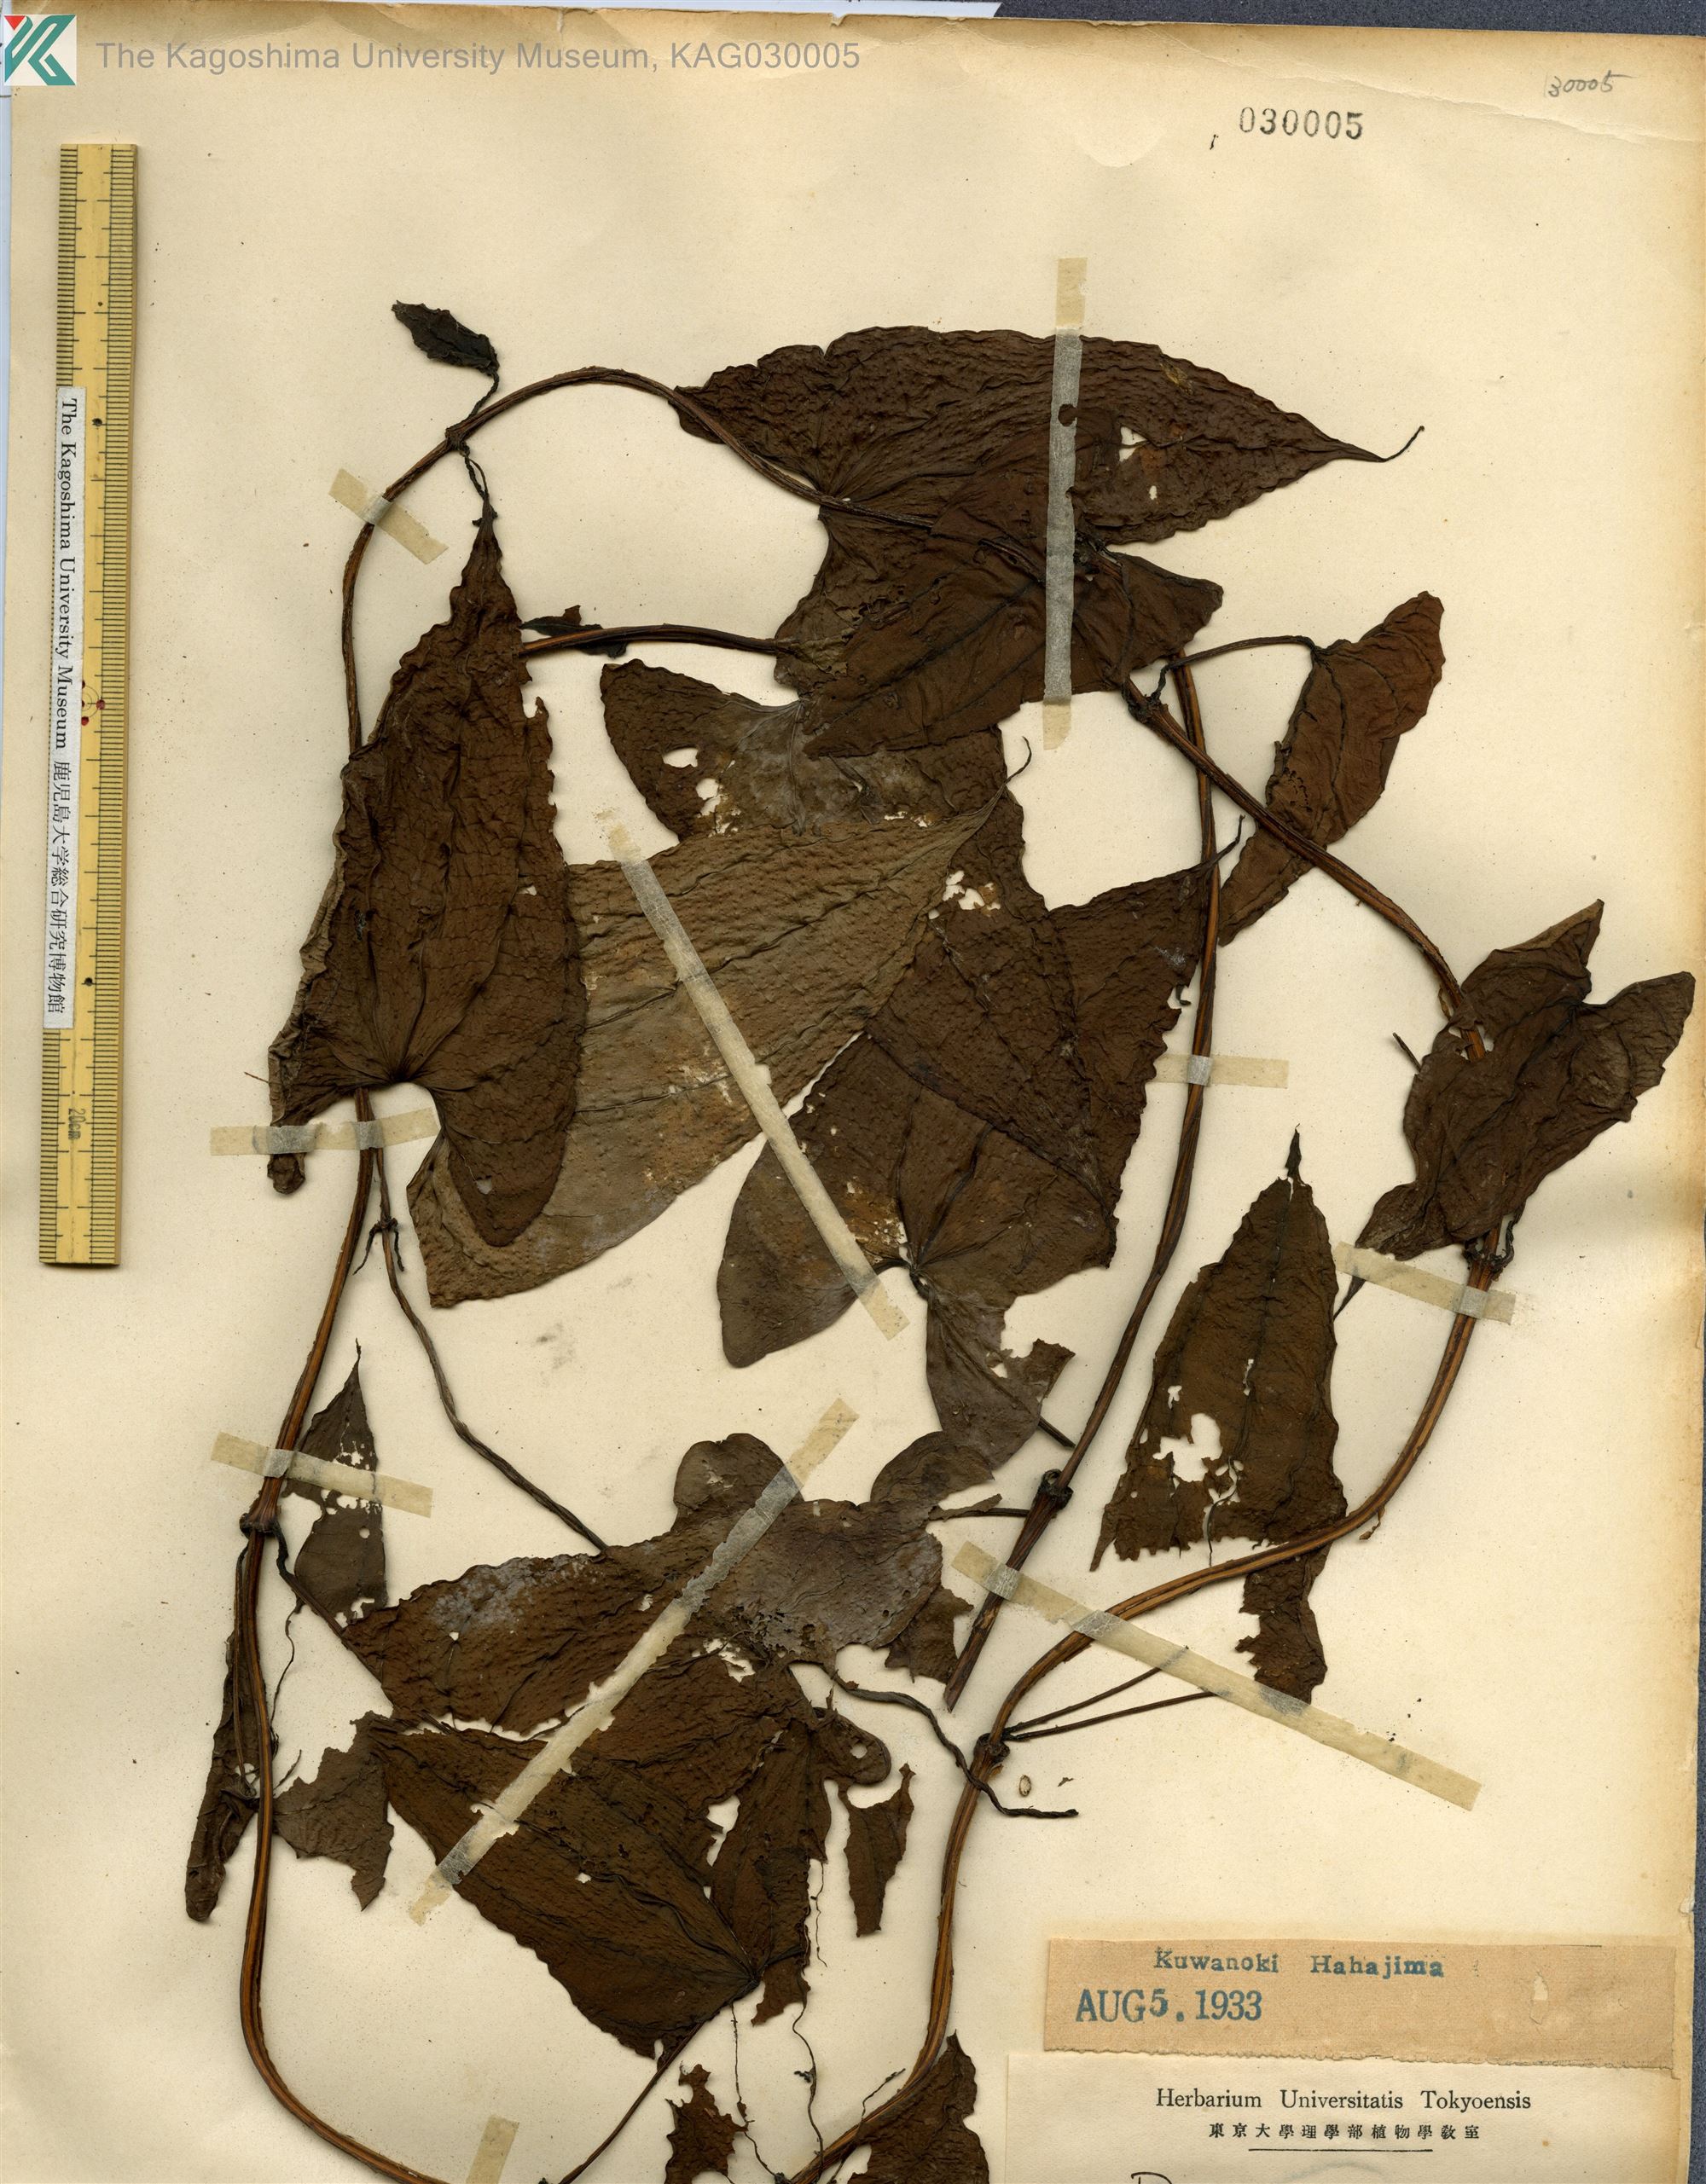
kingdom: Plantae
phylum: Tracheophyta
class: Liliopsida
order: Dioscoreales
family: Dioscoreaceae
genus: Dioscorea
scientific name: Dioscorea alata
